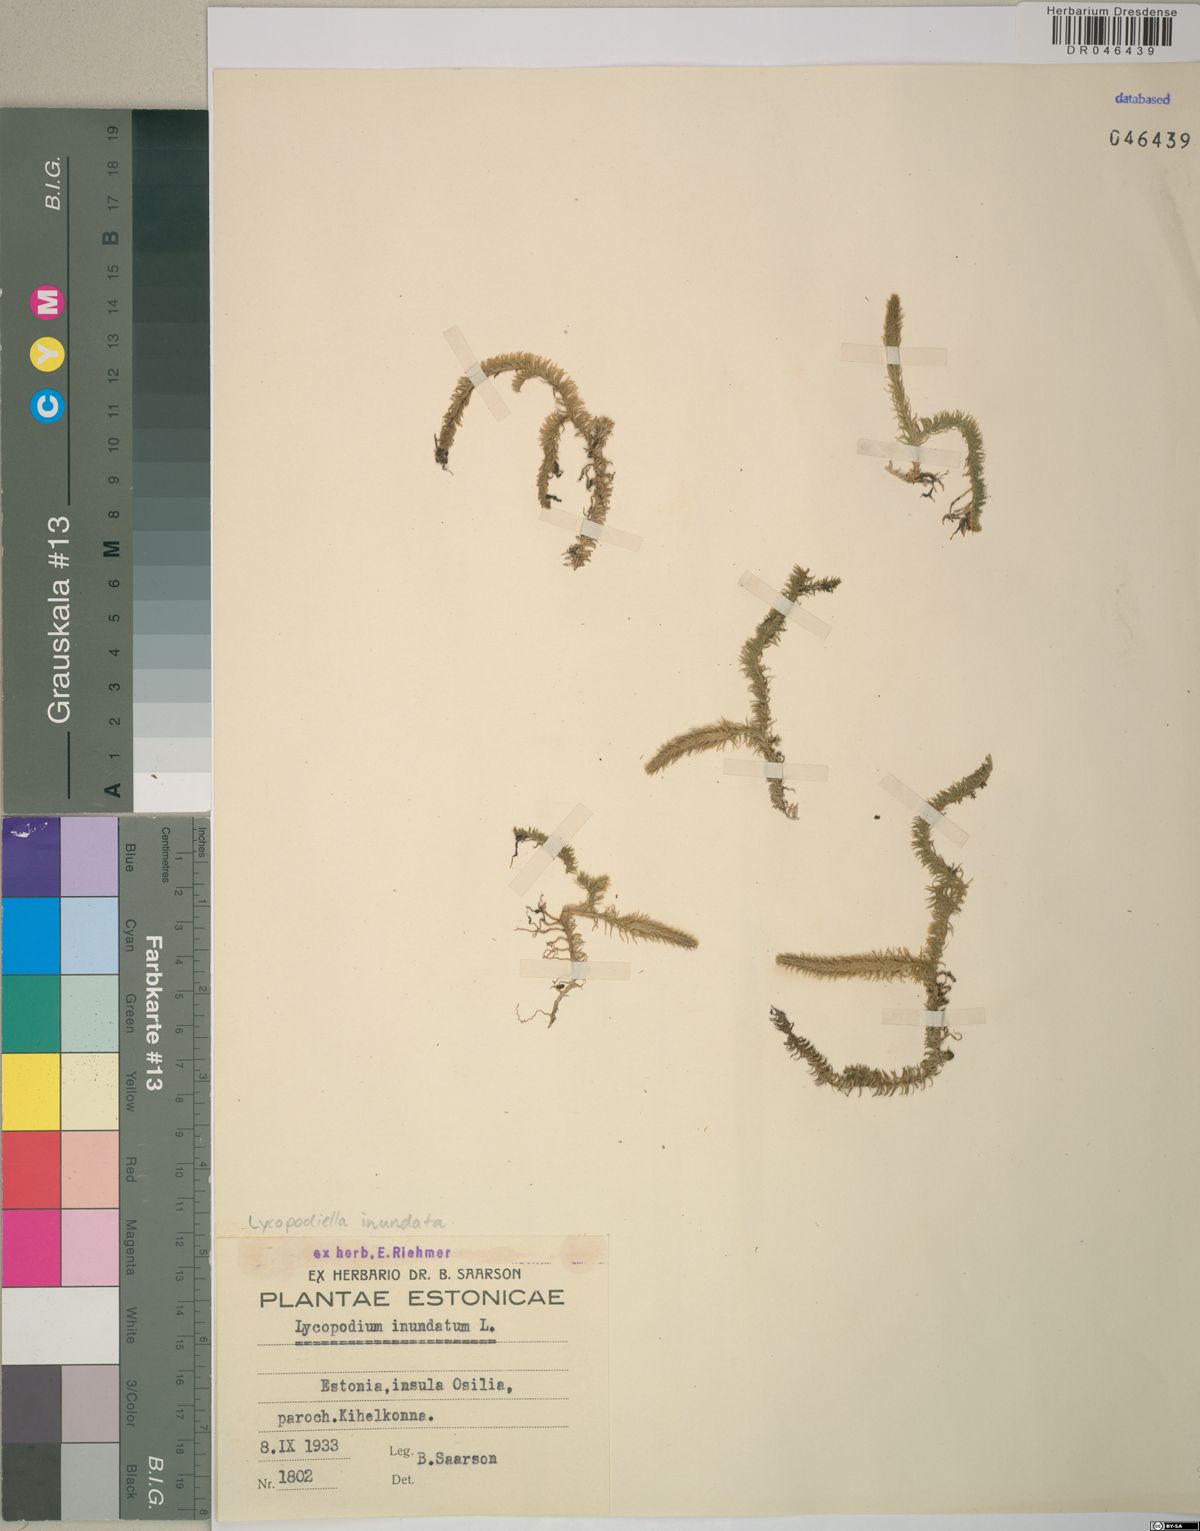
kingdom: Plantae
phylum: Tracheophyta
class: Lycopodiopsida
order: Lycopodiales
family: Lycopodiaceae
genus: Lycopodiella
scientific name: Lycopodiella inundata
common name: Marsh clubmoss
